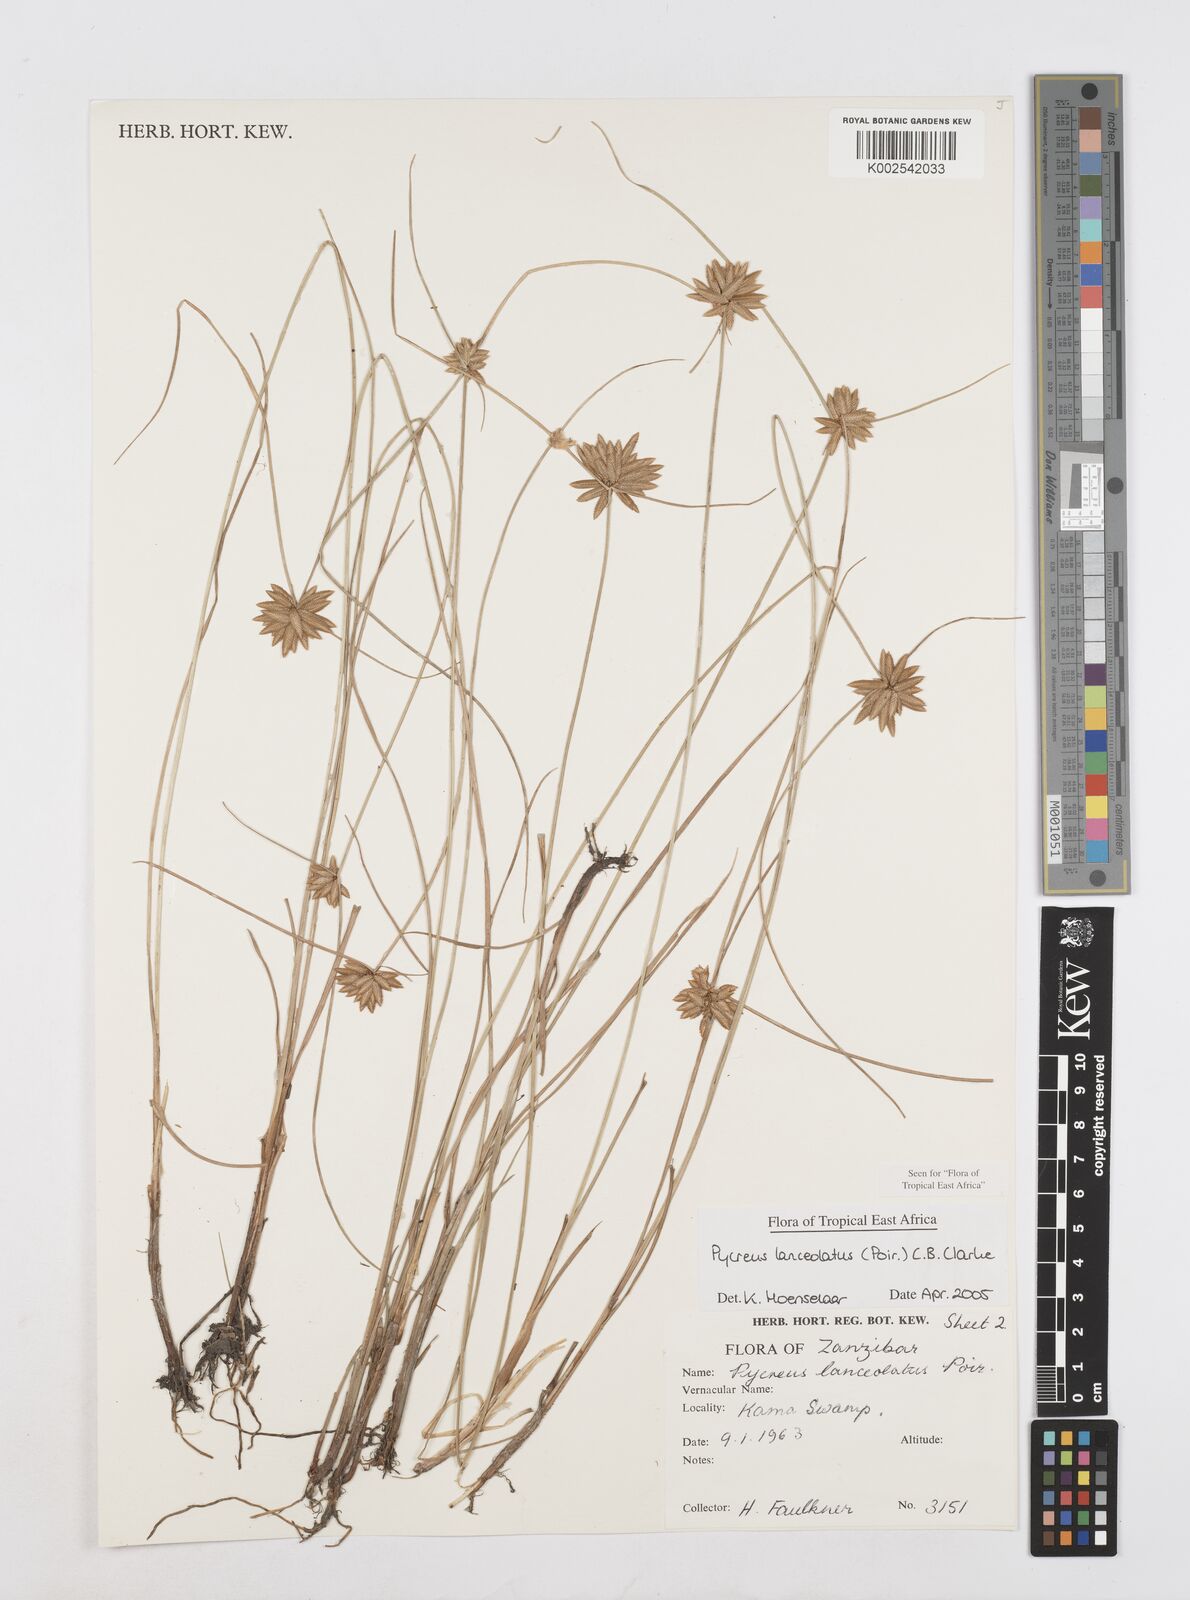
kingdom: Plantae
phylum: Tracheophyta
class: Liliopsida
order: Poales
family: Cyperaceae
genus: Cyperus
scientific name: Cyperus lanceolatus
